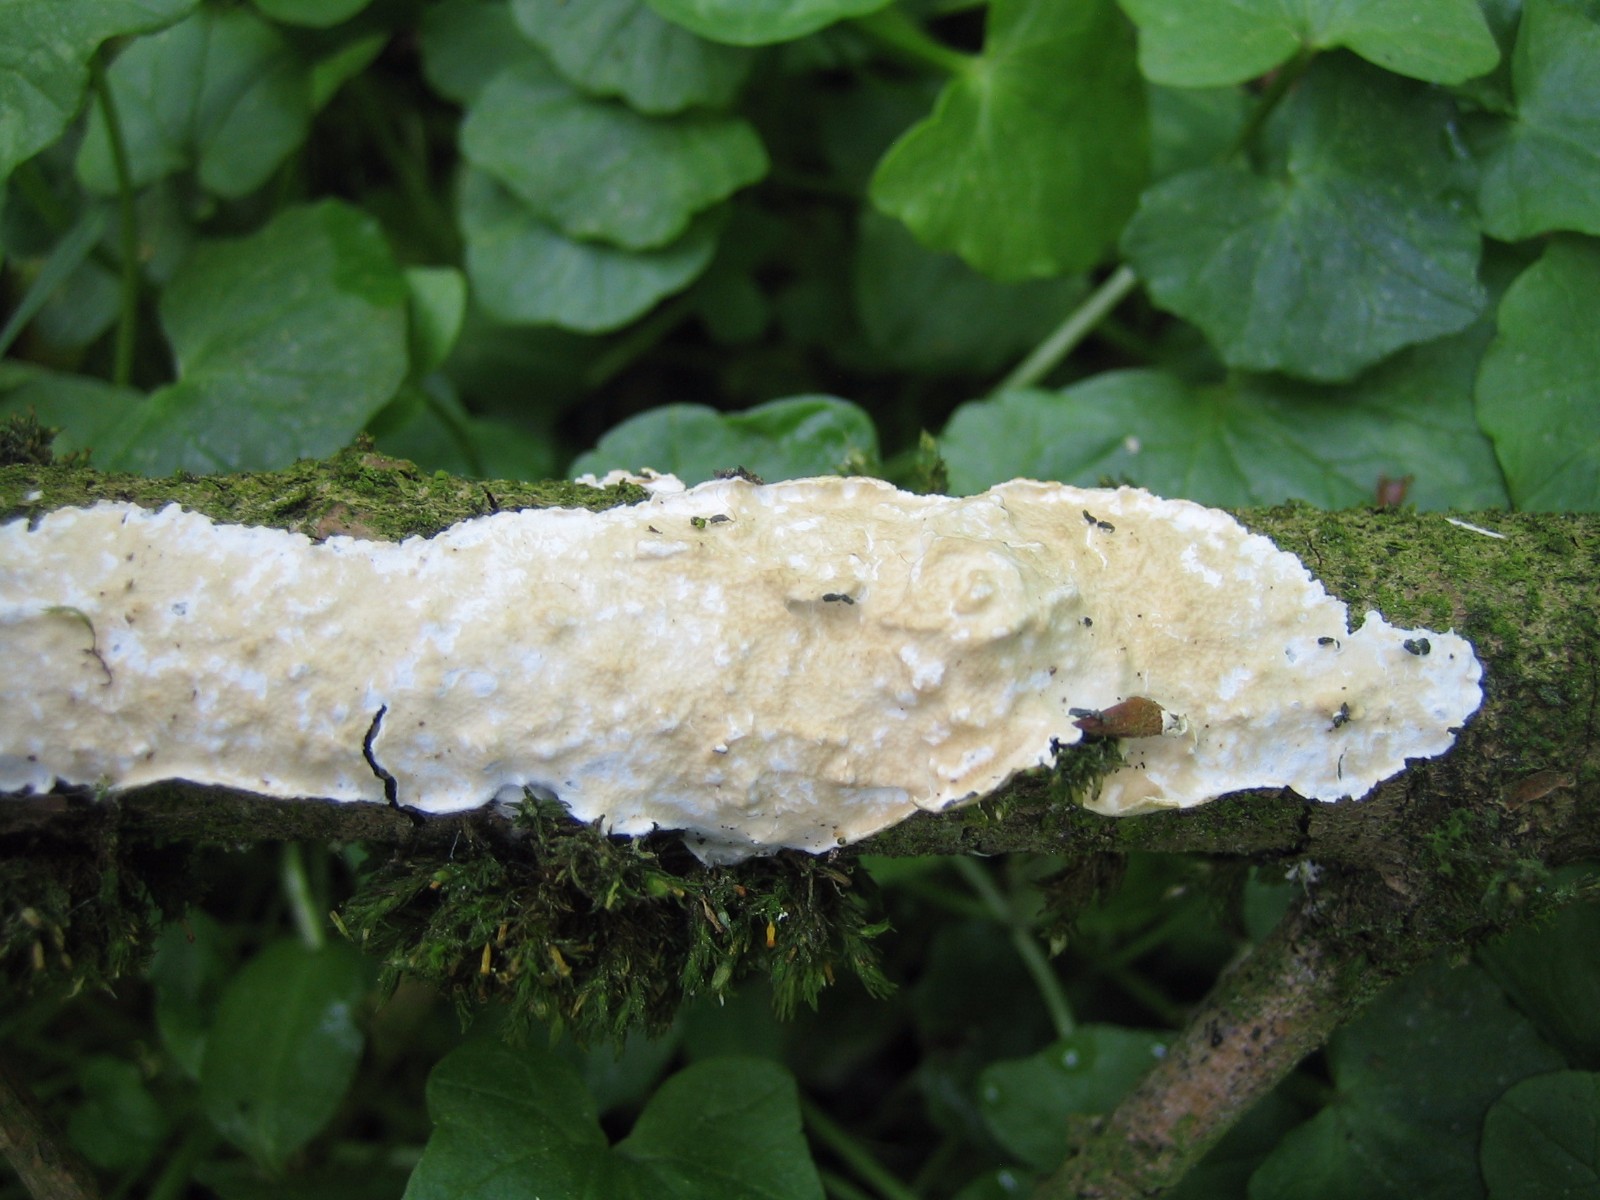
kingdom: Fungi
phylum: Basidiomycota
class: Agaricomycetes
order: Polyporales
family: Irpicaceae
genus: Byssomerulius
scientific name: Byssomerulius corium
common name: læder-åresvamp
